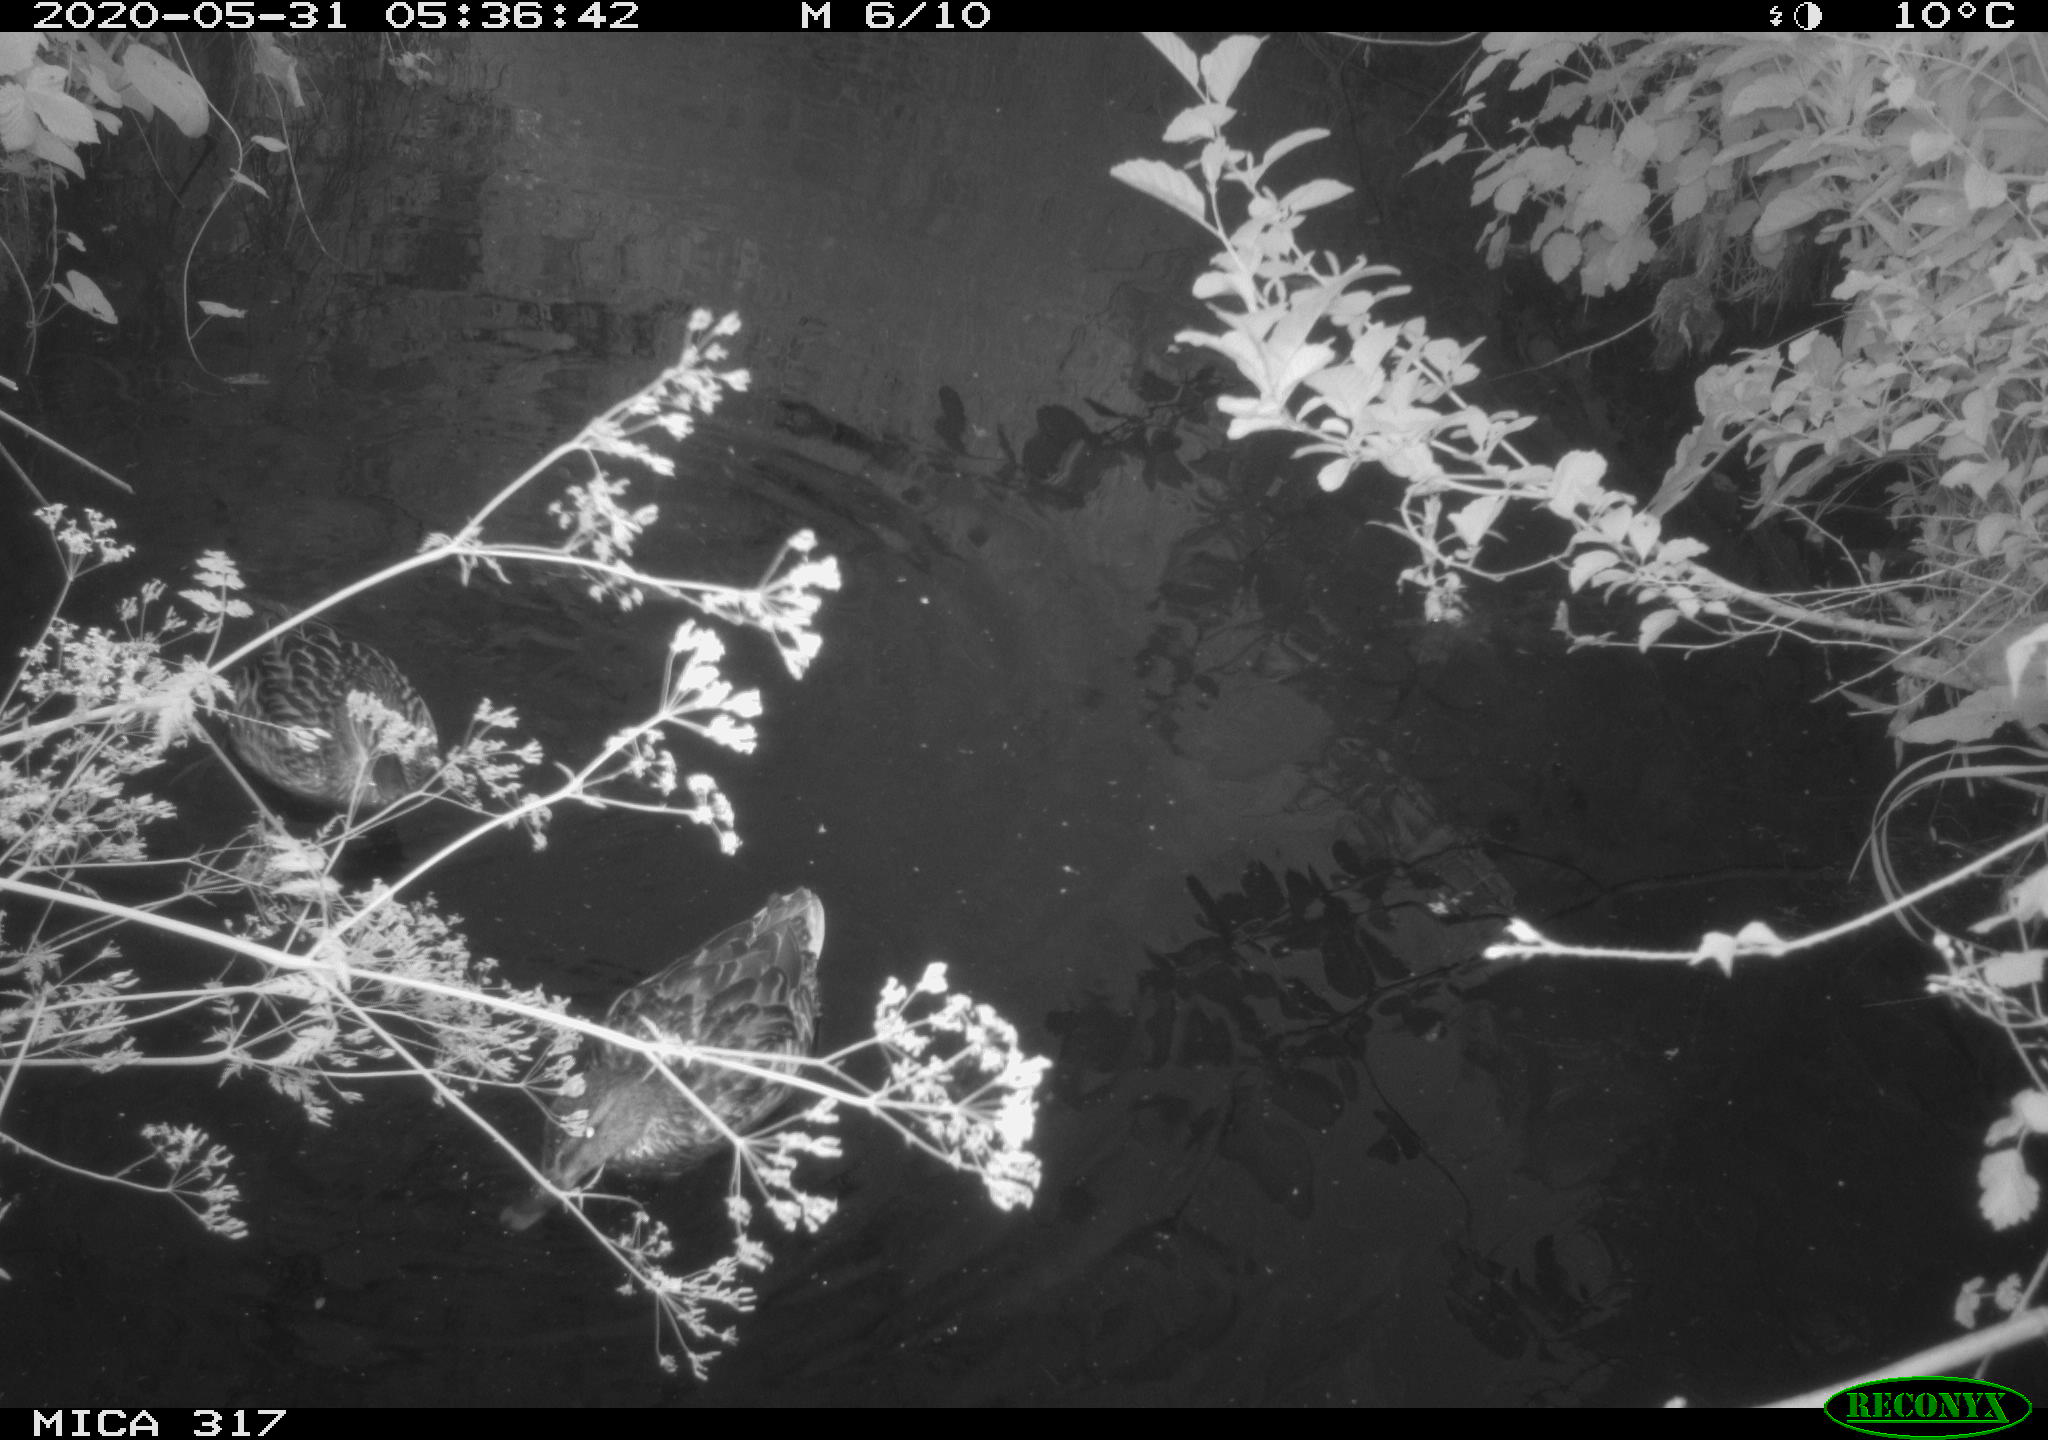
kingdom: Animalia
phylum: Chordata
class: Aves
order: Anseriformes
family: Anatidae
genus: Anas
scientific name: Anas platyrhynchos
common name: Mallard
